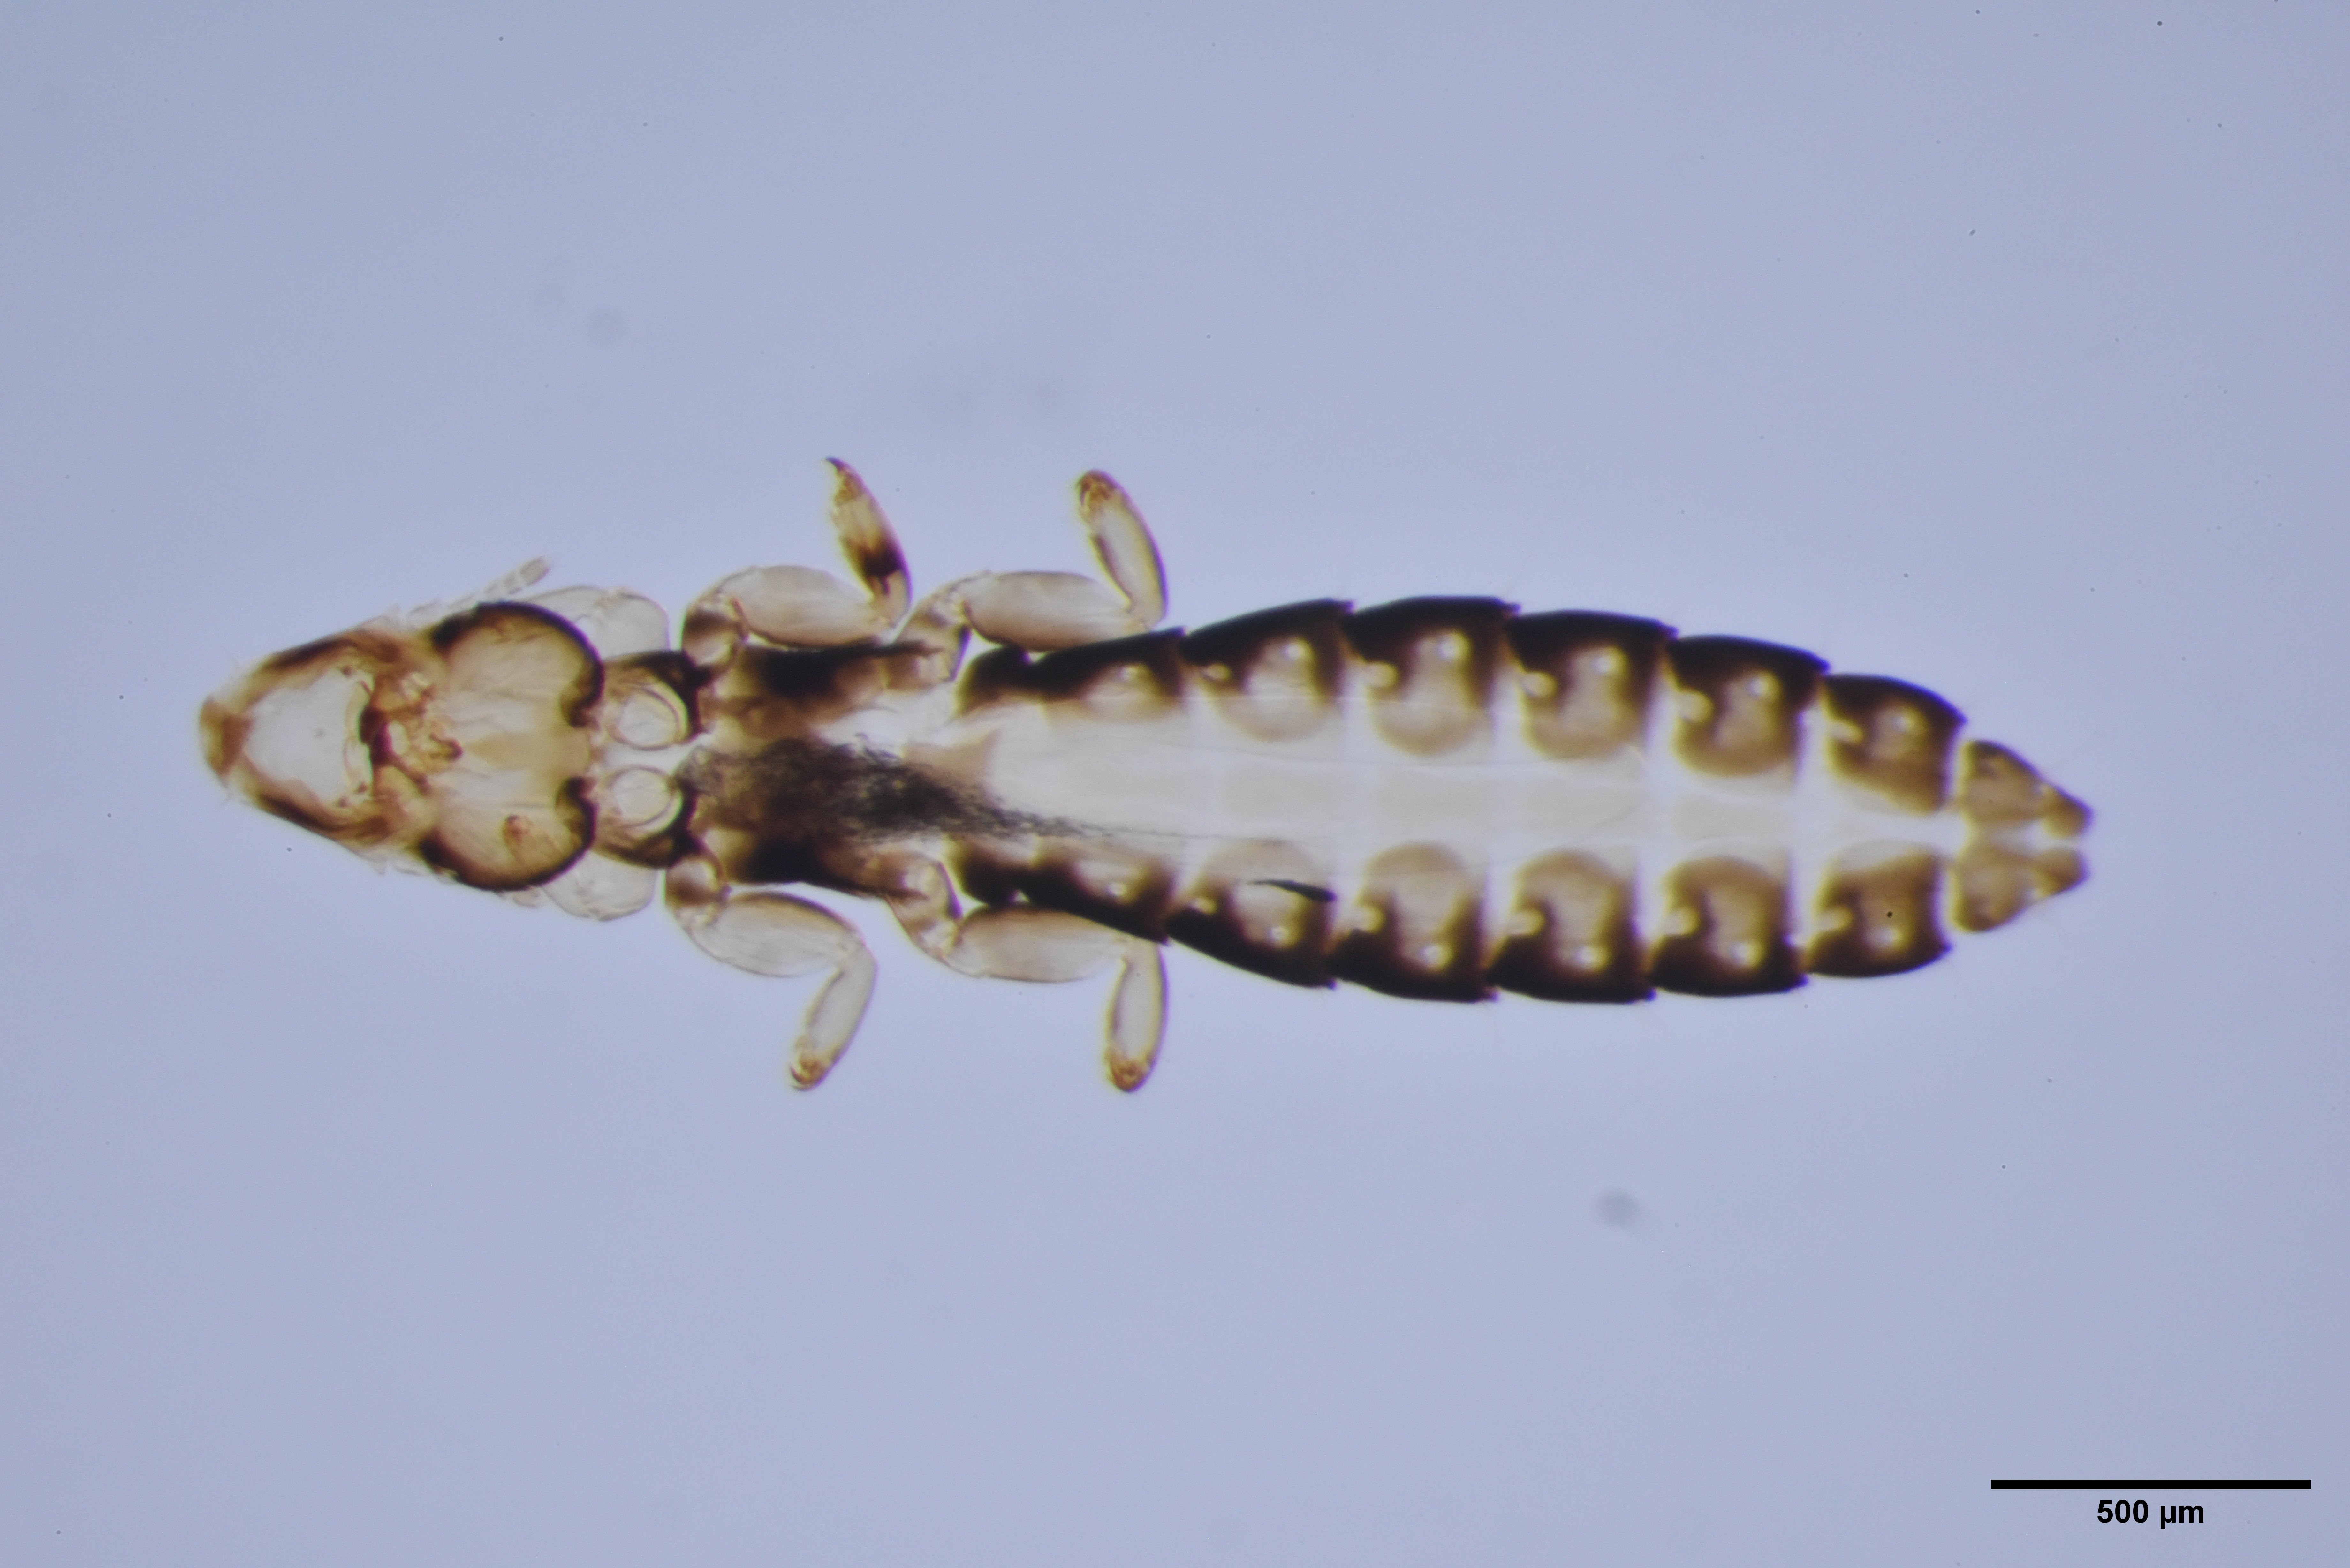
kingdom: Animalia
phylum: Arthropoda
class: Insecta
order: Psocodea
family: Philopteridae
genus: Anaticola
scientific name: Anaticola crassicorne
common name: Louse
